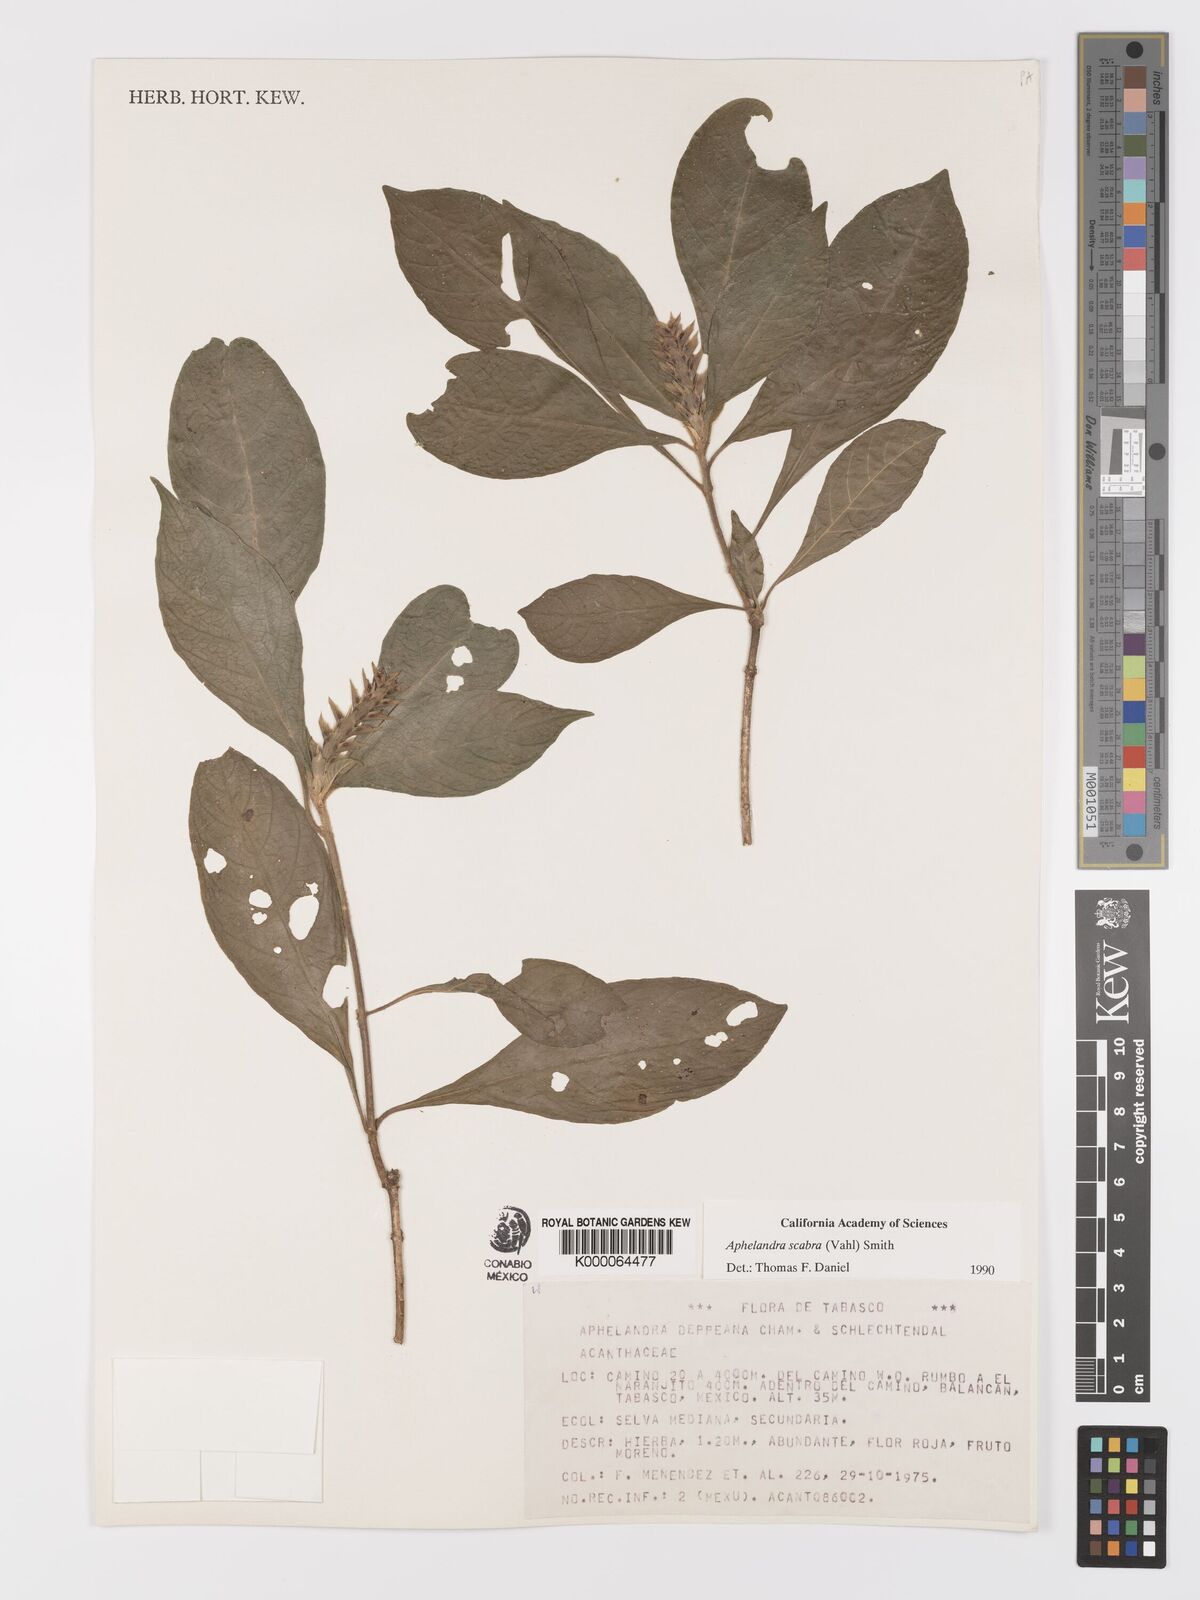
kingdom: Plantae
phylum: Tracheophyta
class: Magnoliopsida
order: Lamiales
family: Acanthaceae
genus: Aphelandra
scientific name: Aphelandra scabra
